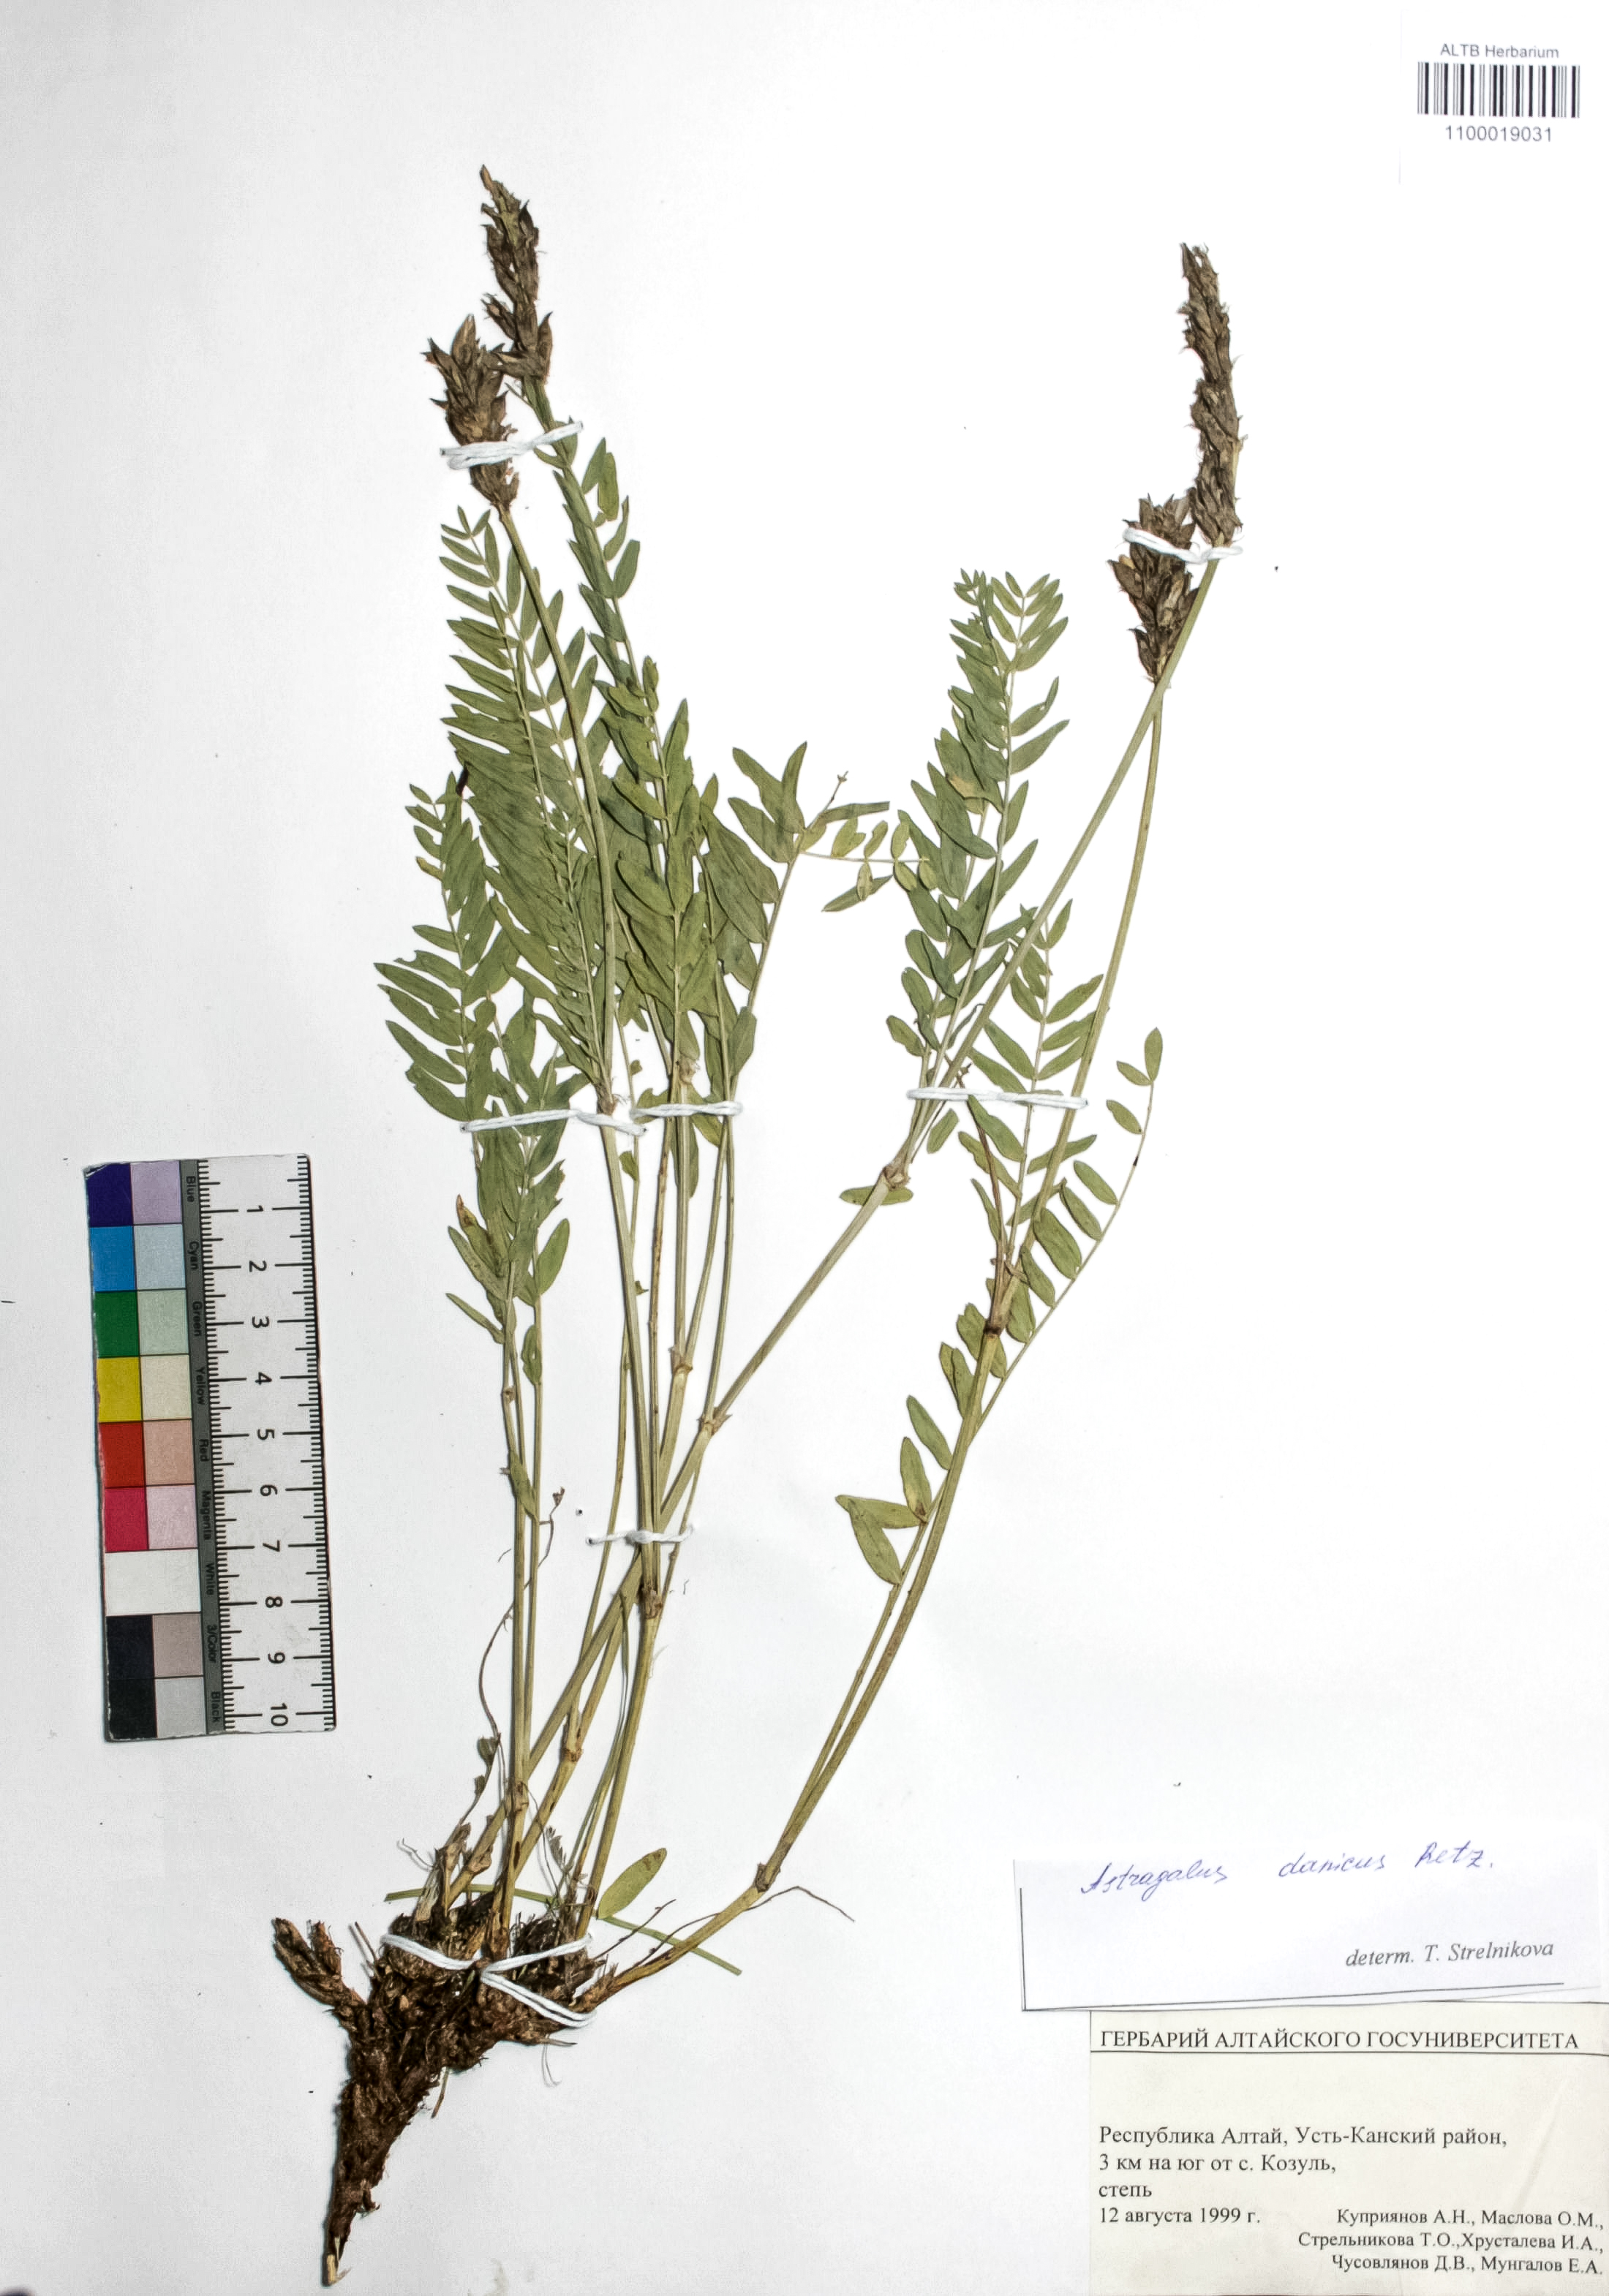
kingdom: Plantae
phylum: Tracheophyta
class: Magnoliopsida
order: Fabales
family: Fabaceae
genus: Astragalus
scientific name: Astragalus danicus
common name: Purple milk-vetch
